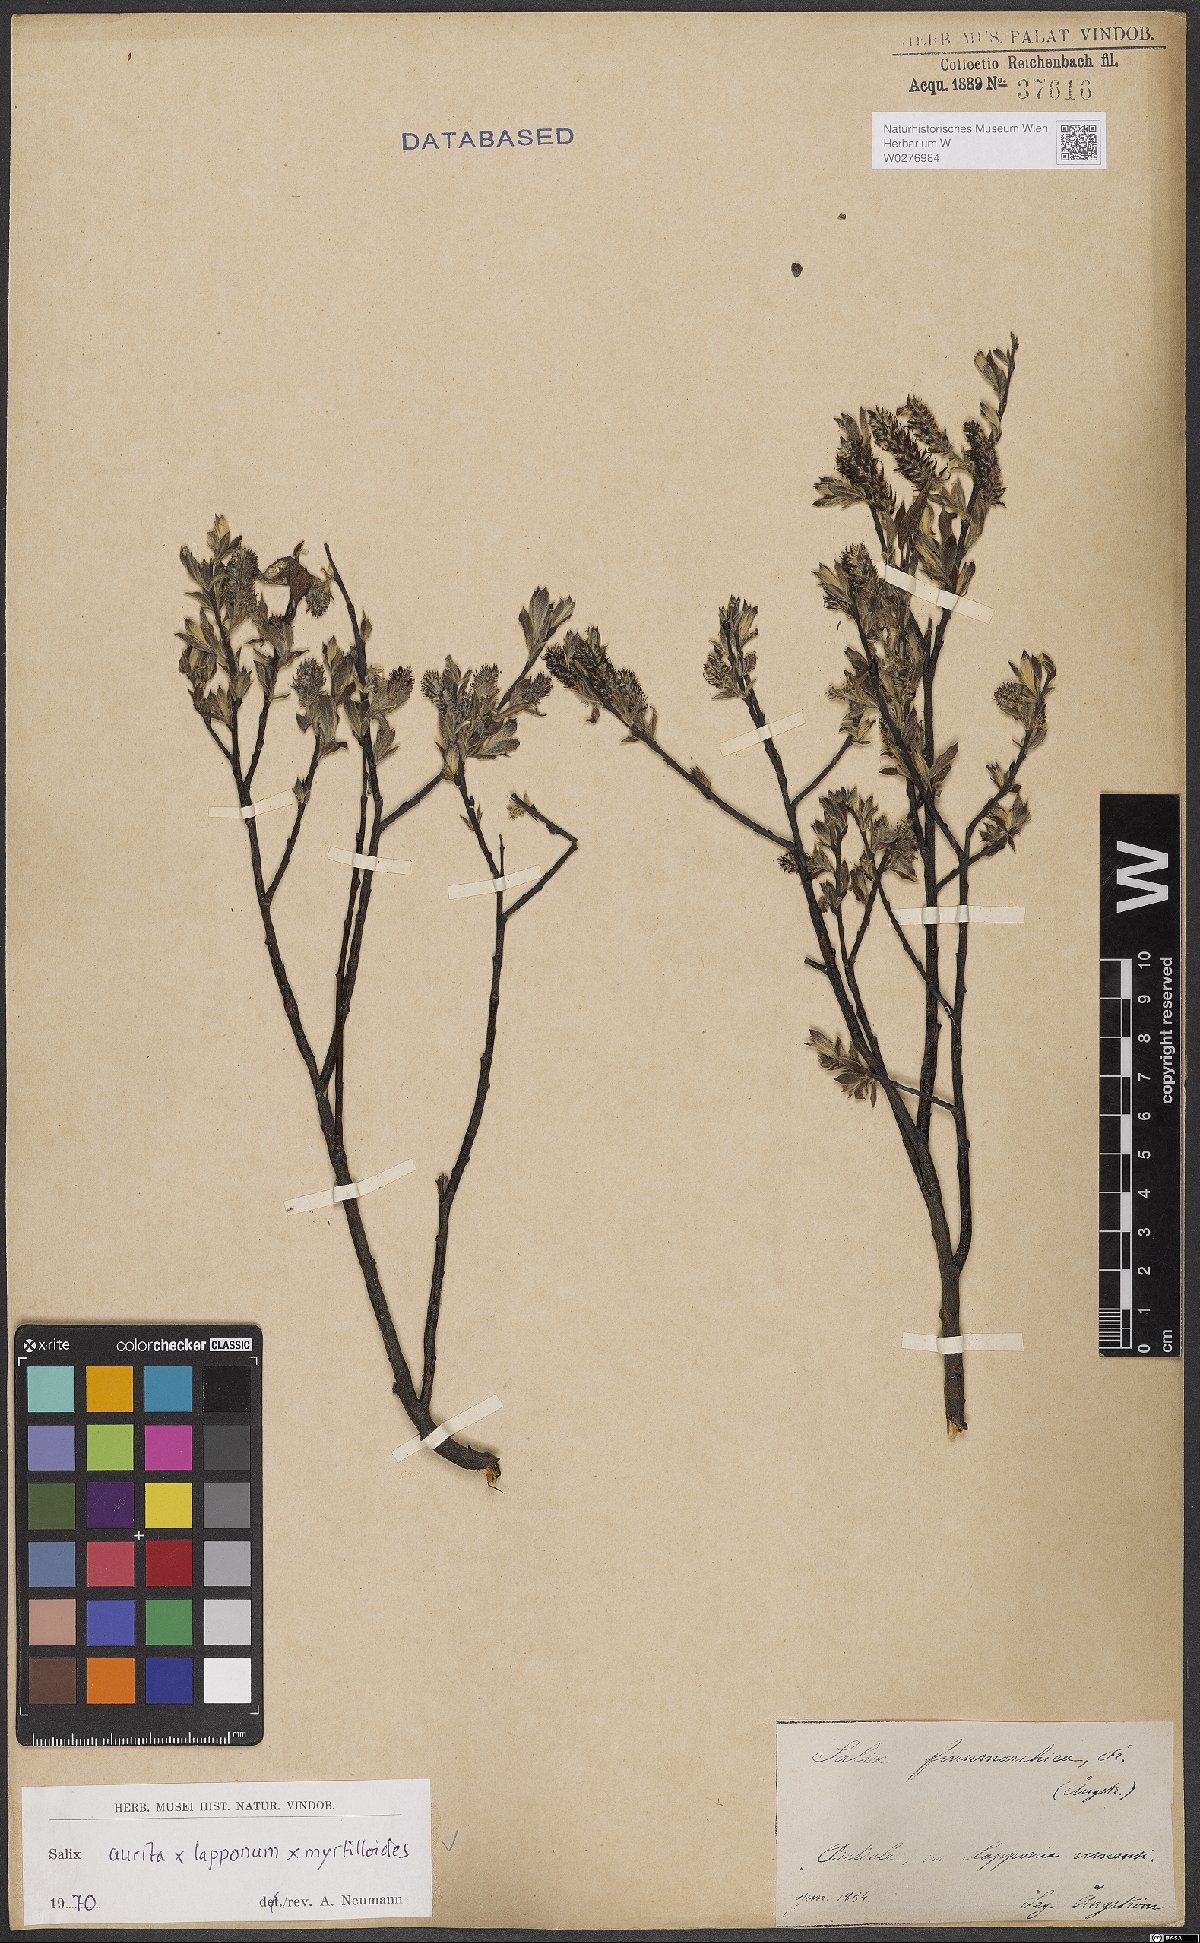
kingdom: Plantae
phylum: Tracheophyta
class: Magnoliopsida
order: Malpighiales
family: Salicaceae
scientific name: Salicaceae
